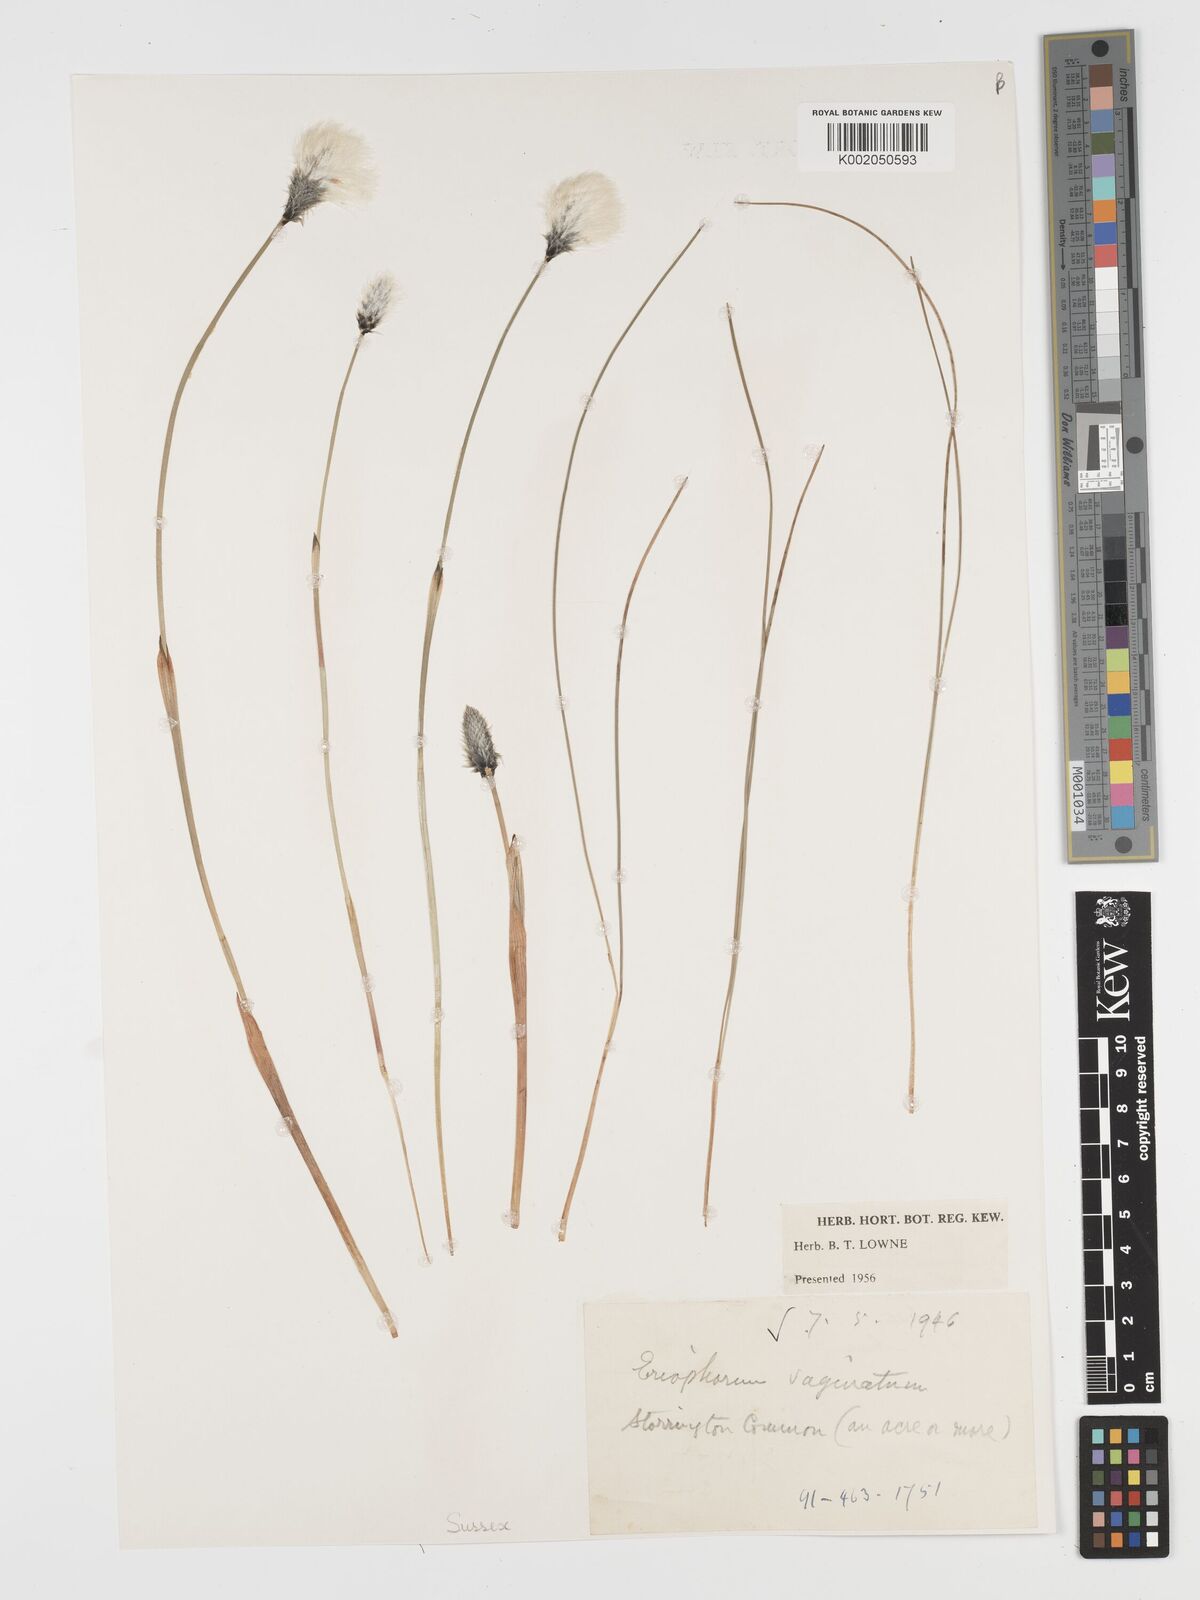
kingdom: Plantae
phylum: Tracheophyta
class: Liliopsida
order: Poales
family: Cyperaceae
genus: Eriophorum
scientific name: Eriophorum vaginatum
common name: Hare's-tail cottongrass
